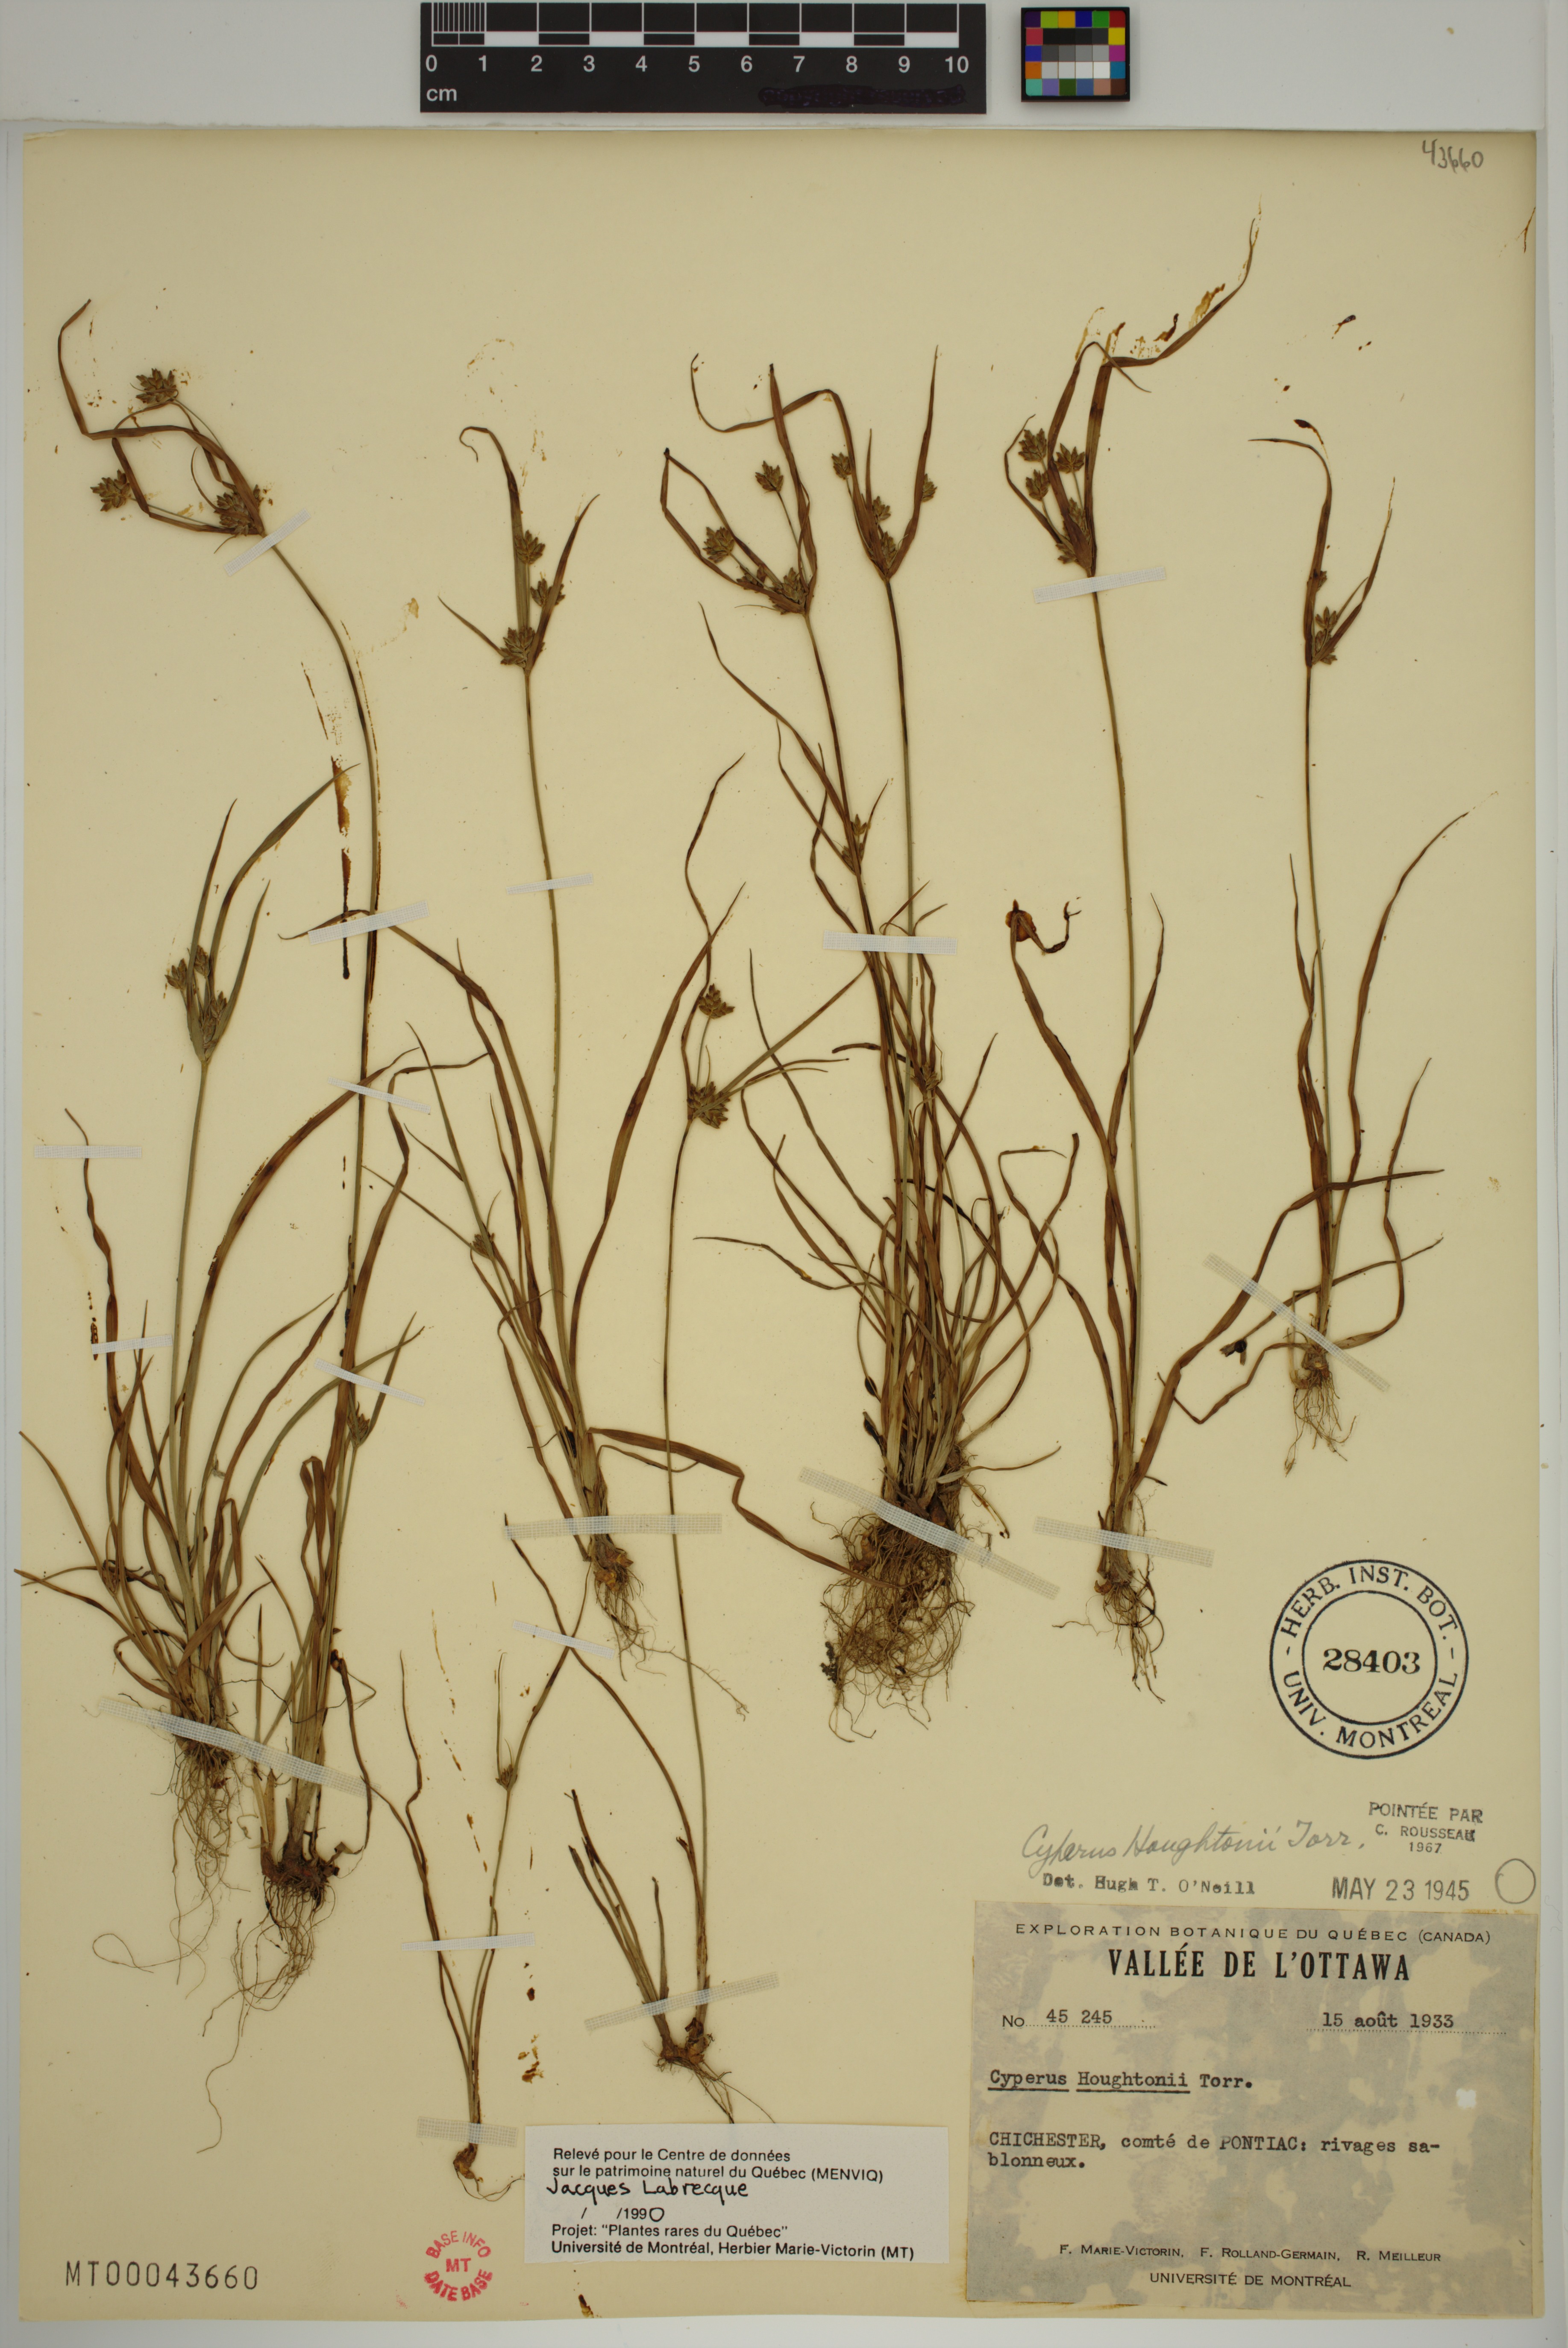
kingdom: Plantae
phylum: Tracheophyta
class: Liliopsida
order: Poales
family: Cyperaceae
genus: Cyperus
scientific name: Cyperus houghtonii
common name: Houghton's cyperus
